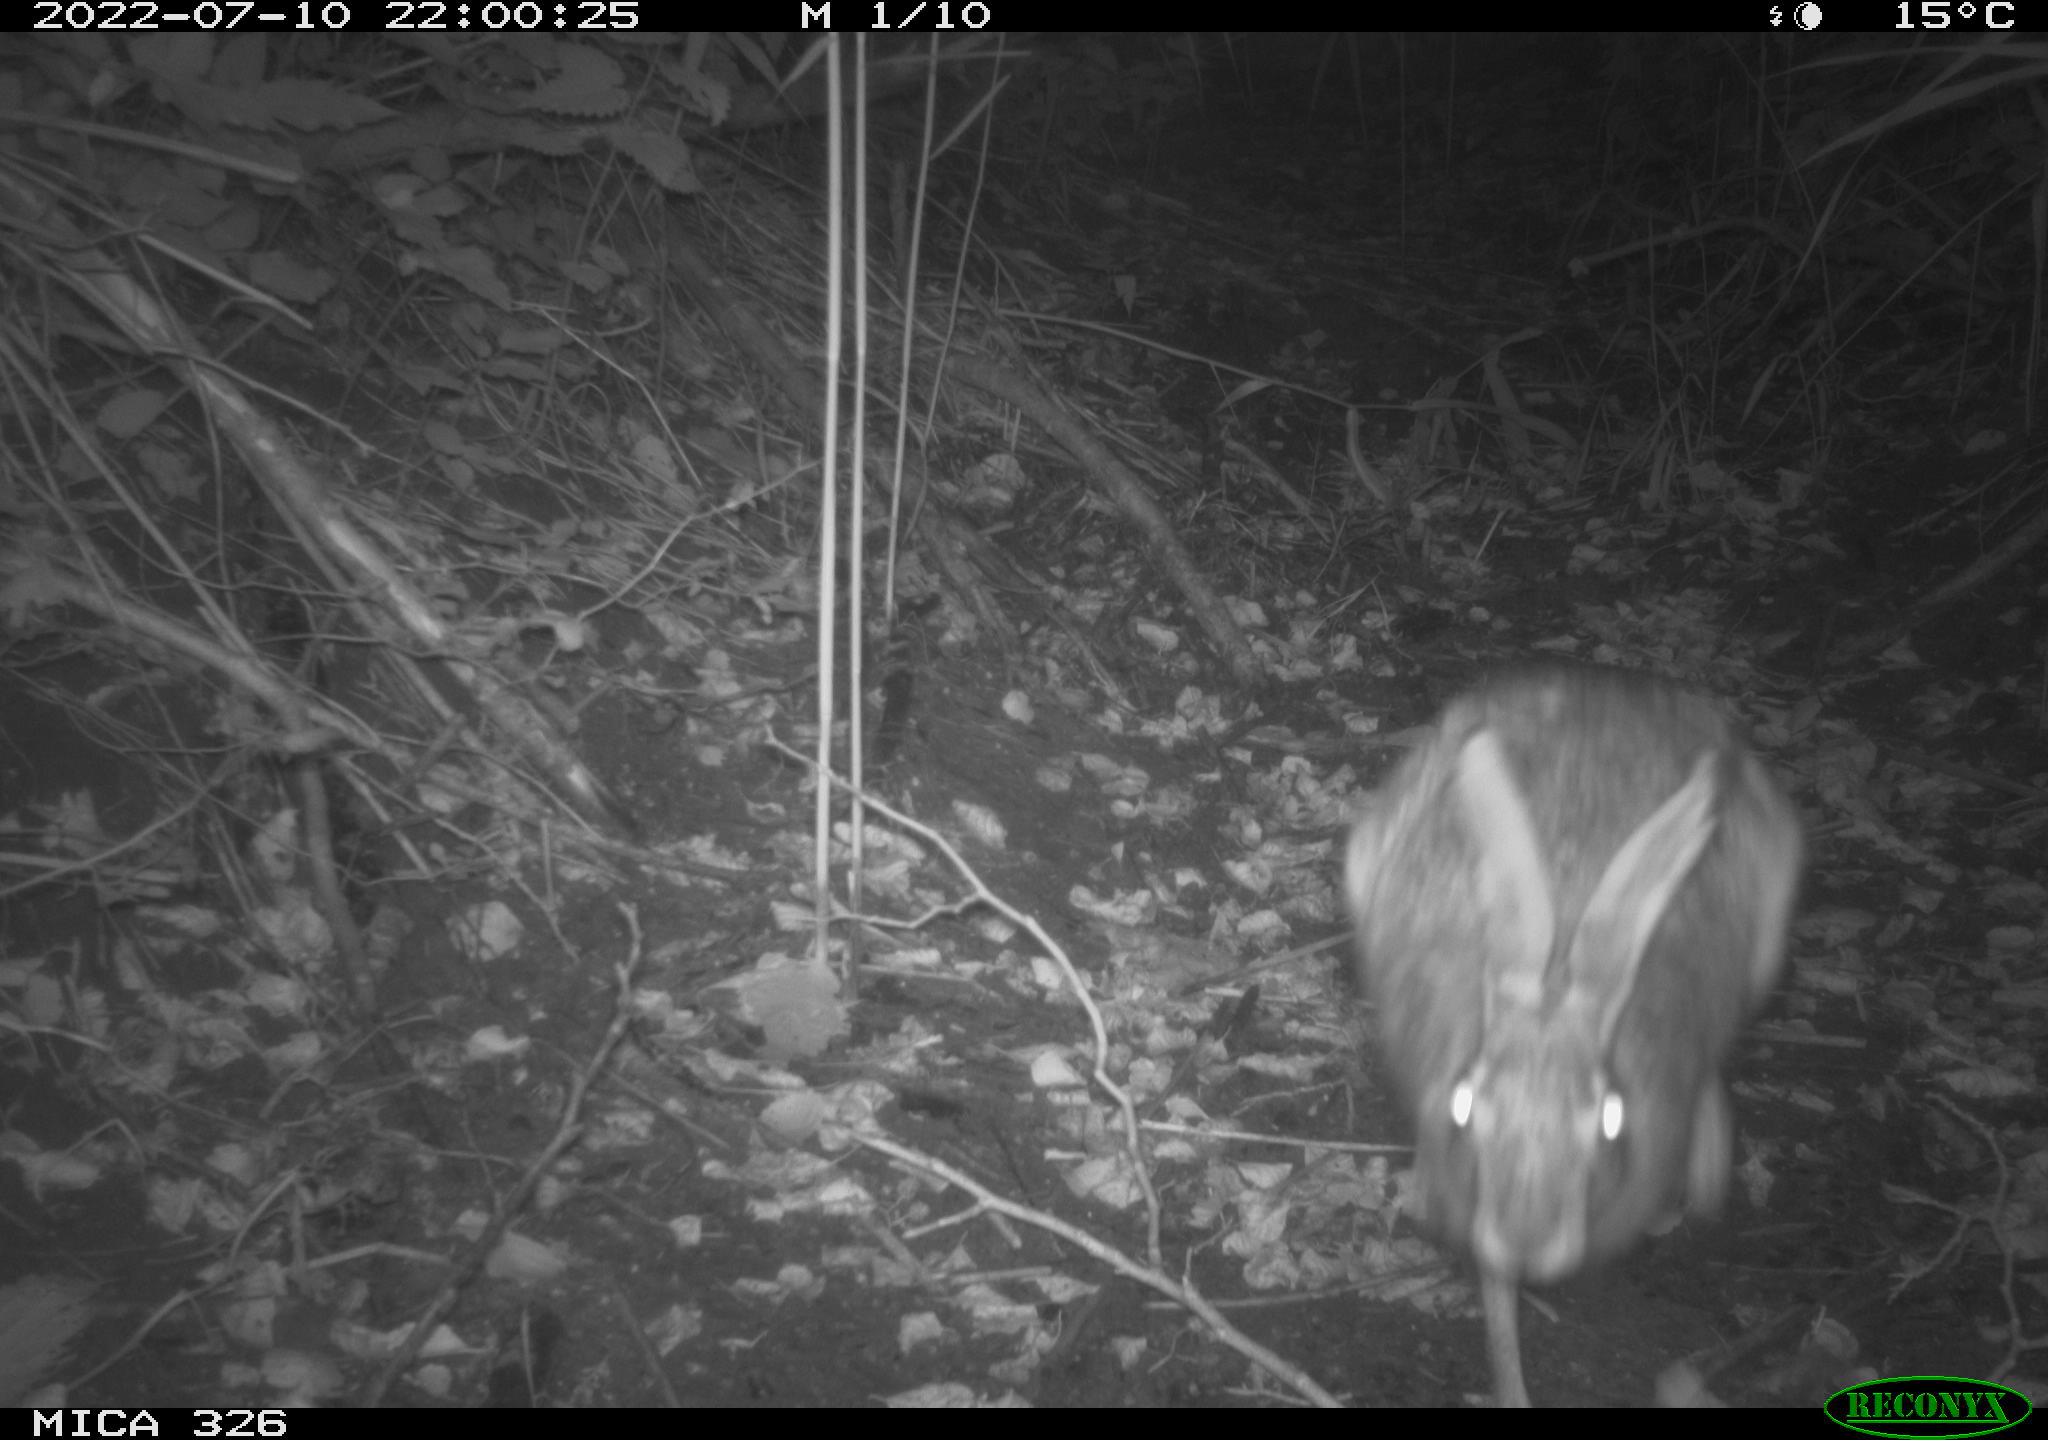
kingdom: Animalia
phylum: Chordata
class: Mammalia
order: Lagomorpha
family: Leporidae
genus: Lepus
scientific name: Lepus europaeus
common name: European hare
